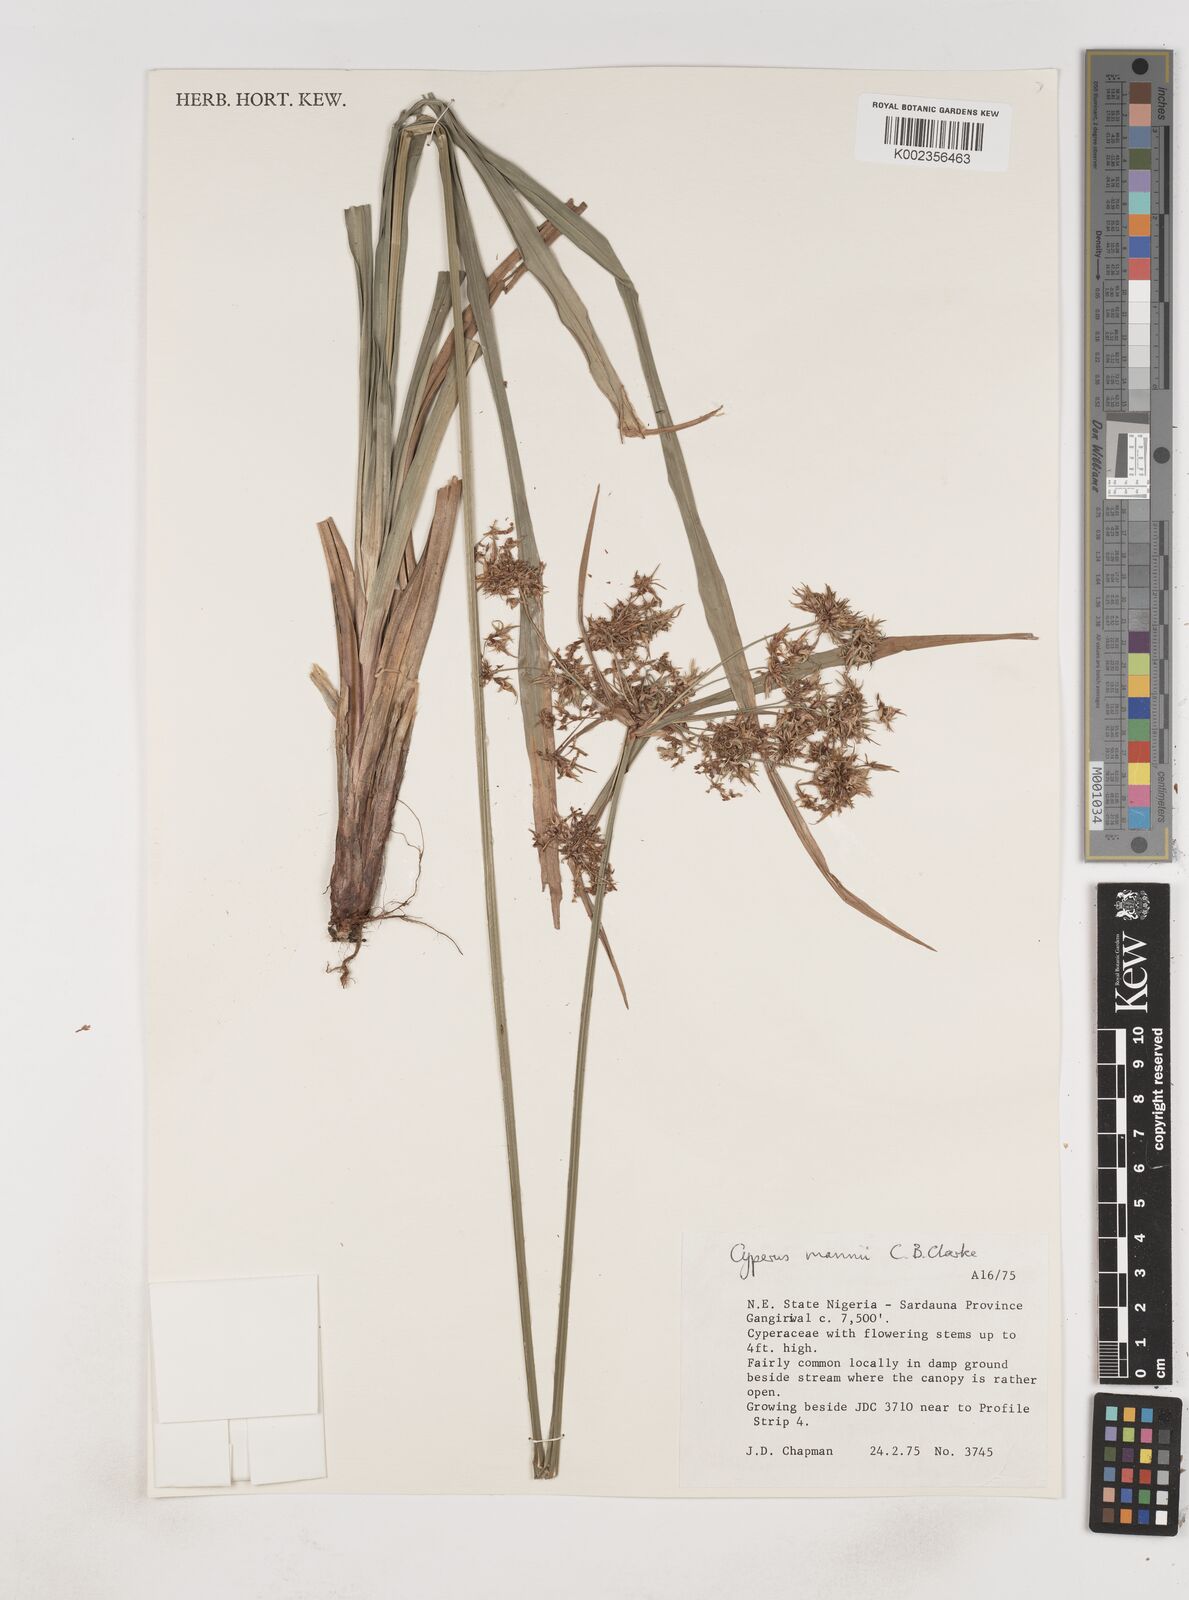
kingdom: Plantae
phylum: Tracheophyta
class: Liliopsida
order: Poales
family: Cyperaceae
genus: Cyperus
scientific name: Cyperus baronii
